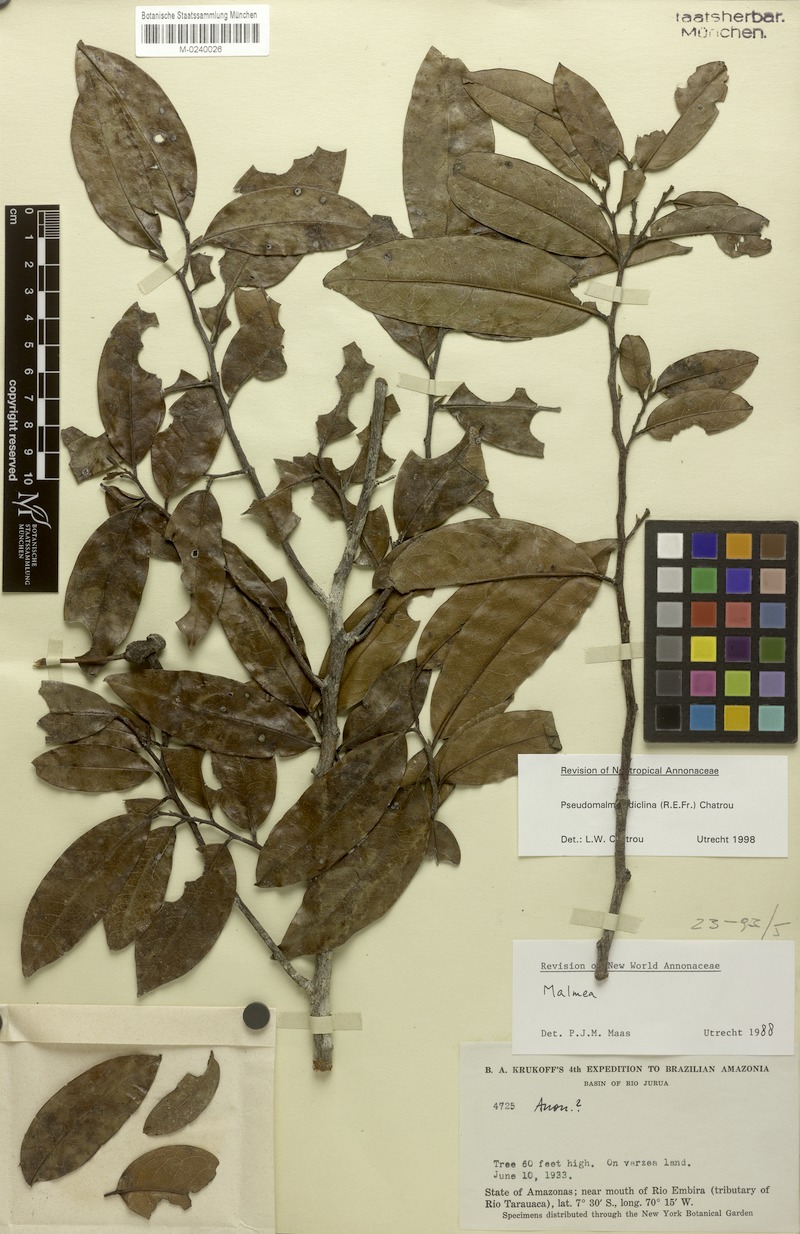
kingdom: Plantae
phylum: Tracheophyta
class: Magnoliopsida
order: Magnoliales
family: Annonaceae
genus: Pseudomalmea
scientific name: Pseudomalmea diclina
